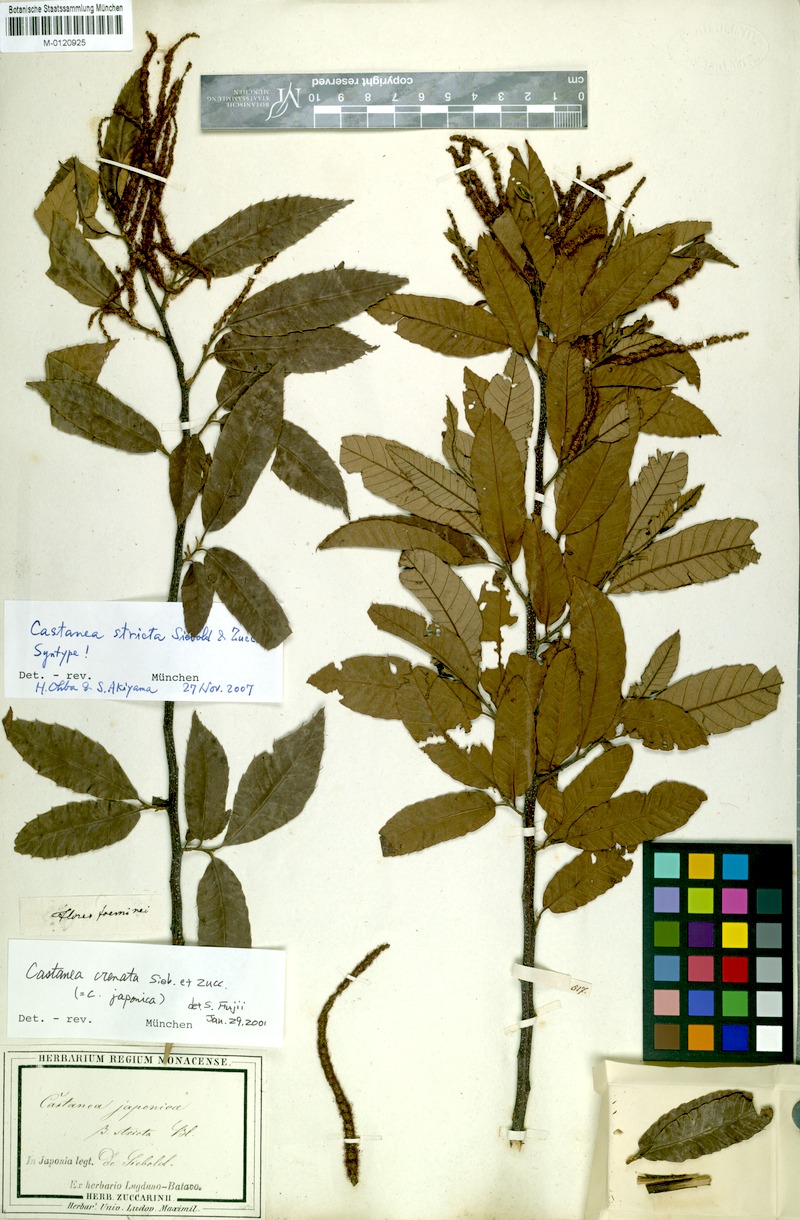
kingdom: Plantae
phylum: Tracheophyta
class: Magnoliopsida
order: Fagales
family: Fagaceae
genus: Castanea
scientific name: Castanea crenata
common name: Japanese chestnut
